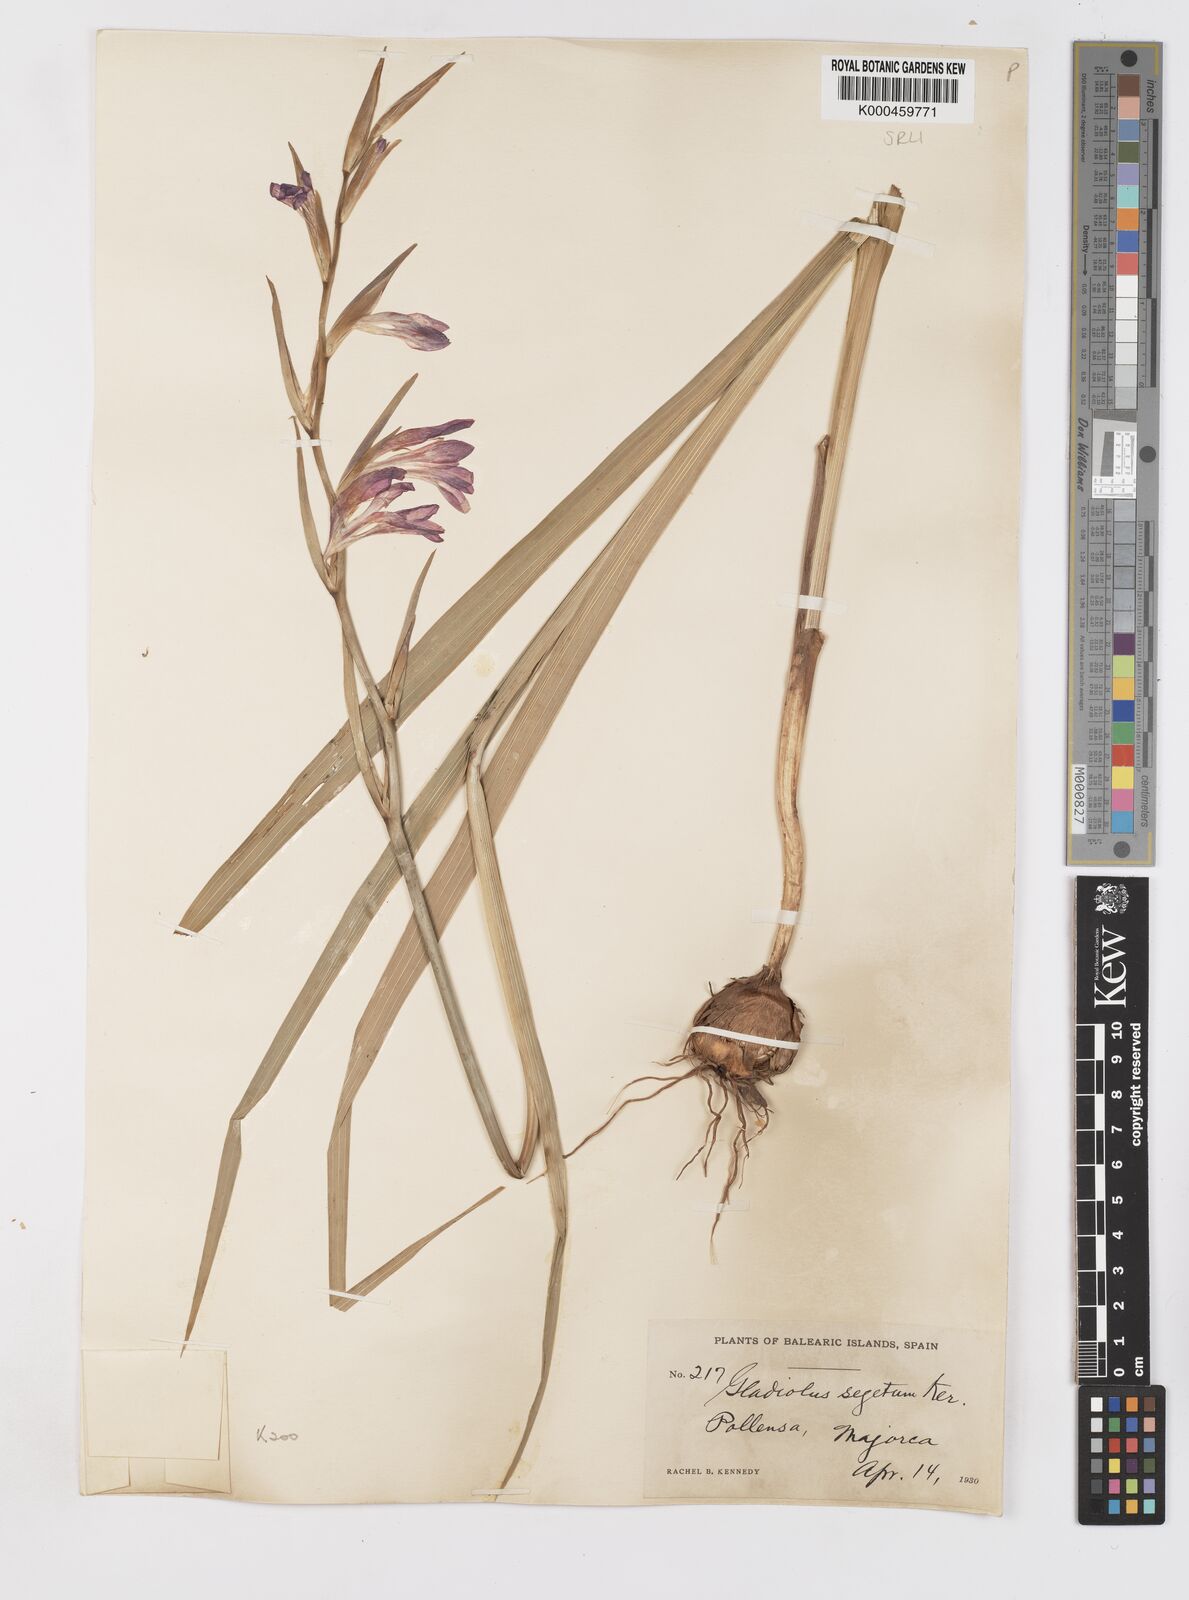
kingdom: Plantae
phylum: Tracheophyta
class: Liliopsida
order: Asparagales
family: Iridaceae
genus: Gladiolus
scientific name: Gladiolus italicus
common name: Field gladiolus
